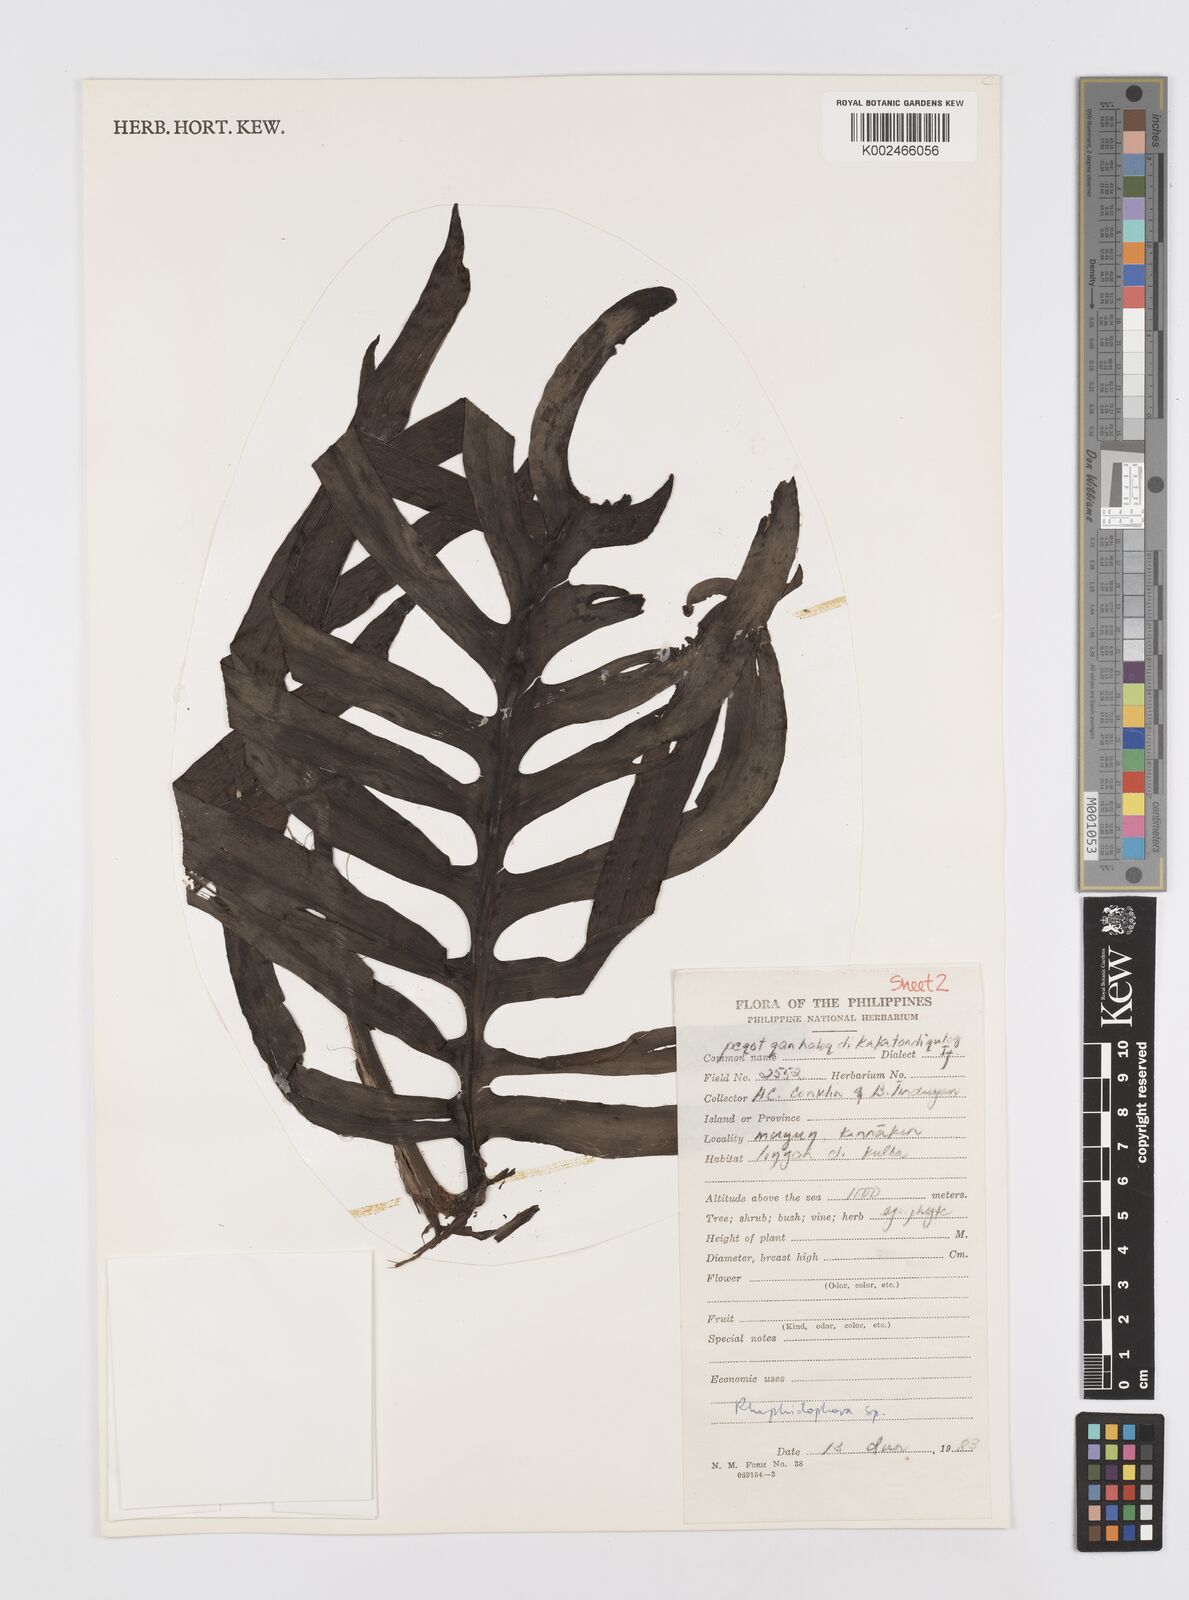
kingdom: Plantae
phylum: Tracheophyta
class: Liliopsida
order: Alismatales
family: Araceae
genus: Rhaphidophora
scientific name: Rhaphidophora korthalsii
